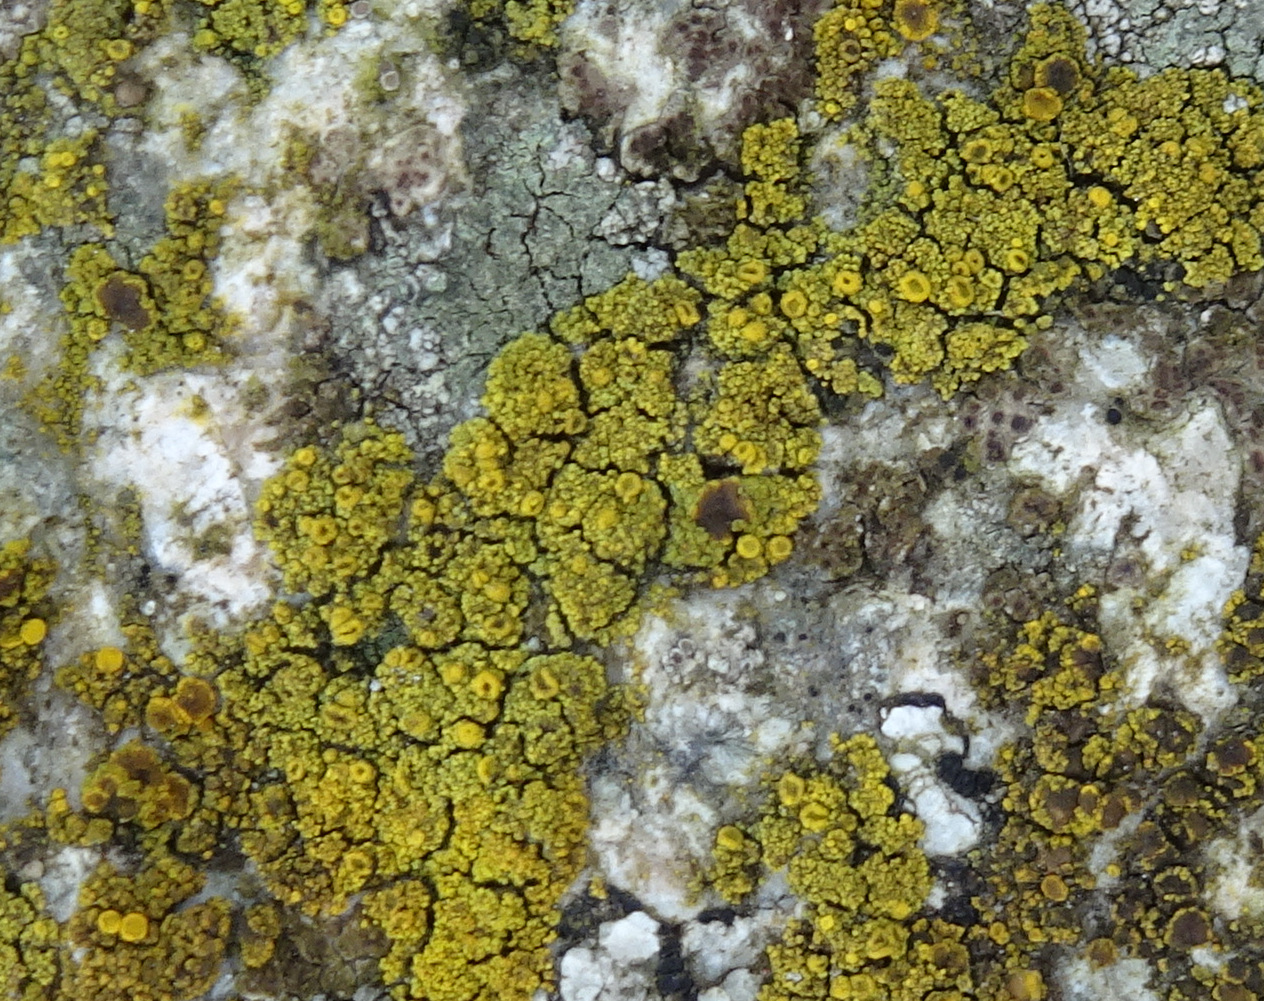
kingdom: Fungi
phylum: Ascomycota
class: Candelariomycetes
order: Candelariales
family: Candelariaceae
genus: Candelariella
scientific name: Candelariella vitellina
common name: almindelig æggeblommelav
